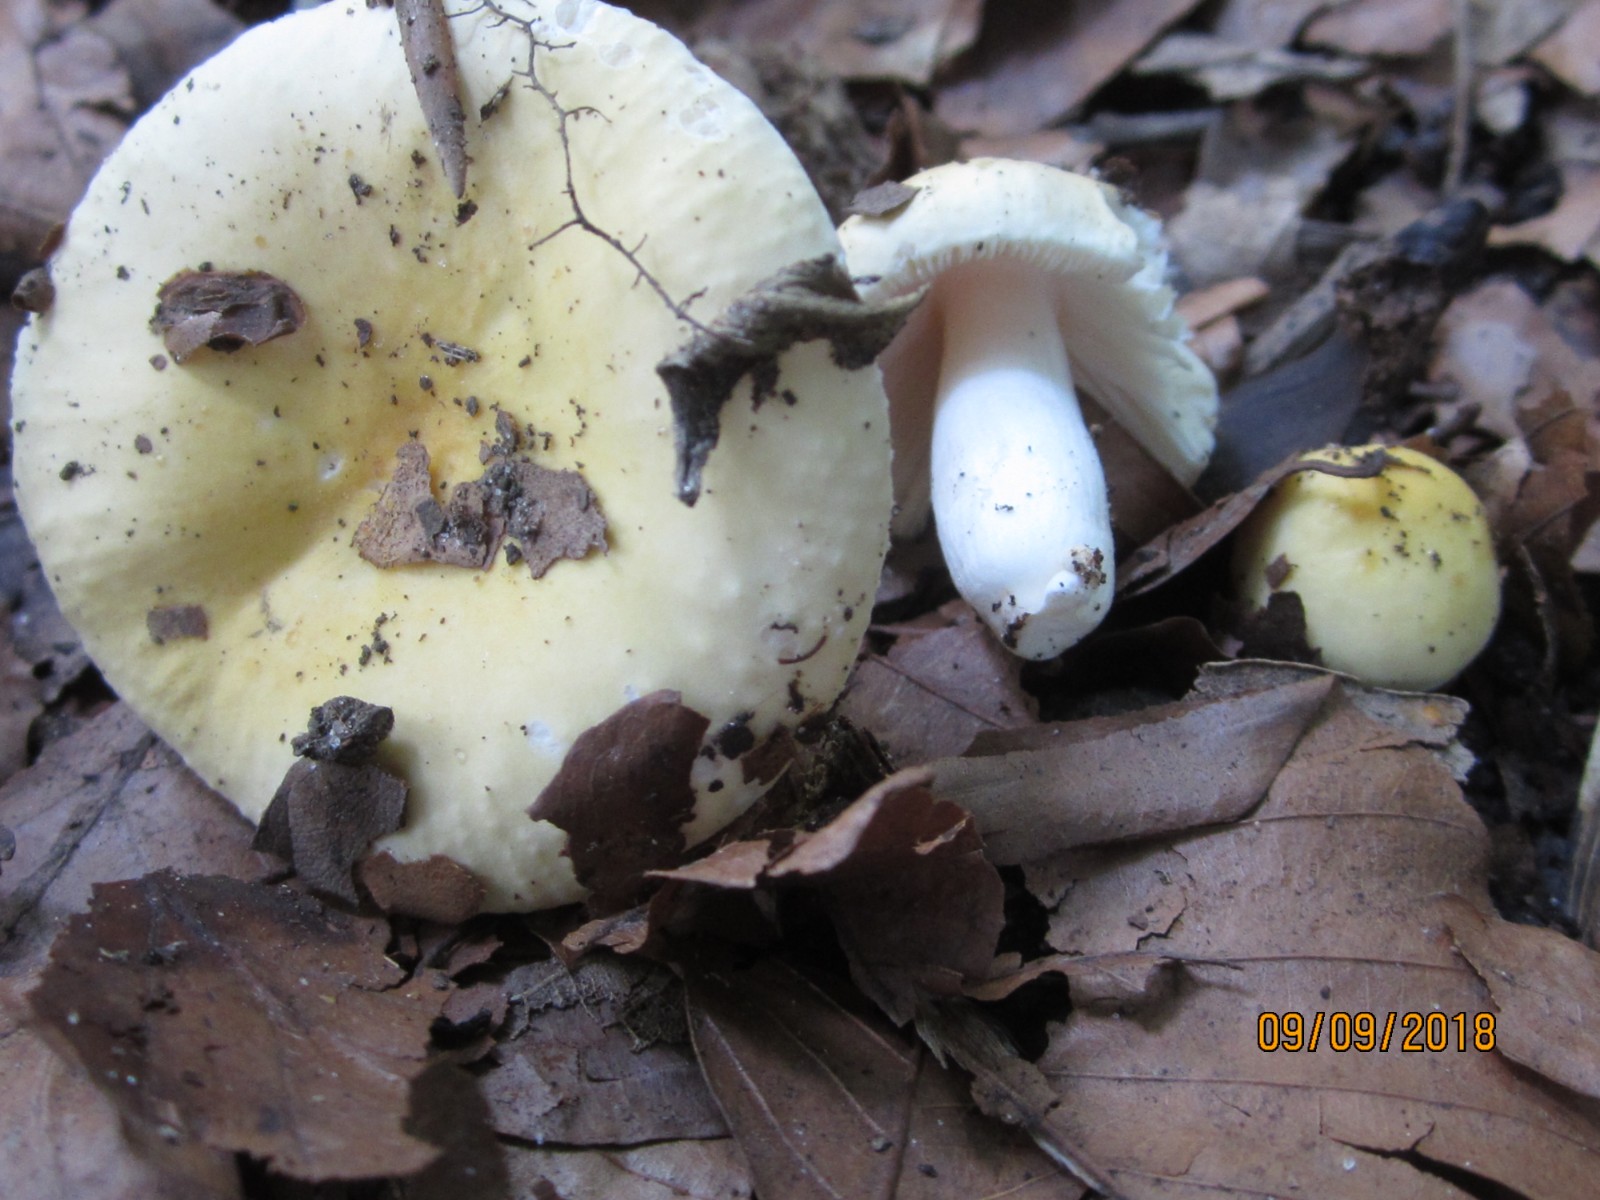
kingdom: Fungi
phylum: Basidiomycota
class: Agaricomycetes
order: Russulales
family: Russulaceae
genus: Russula
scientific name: Russula solaris
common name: sol-skørhat
